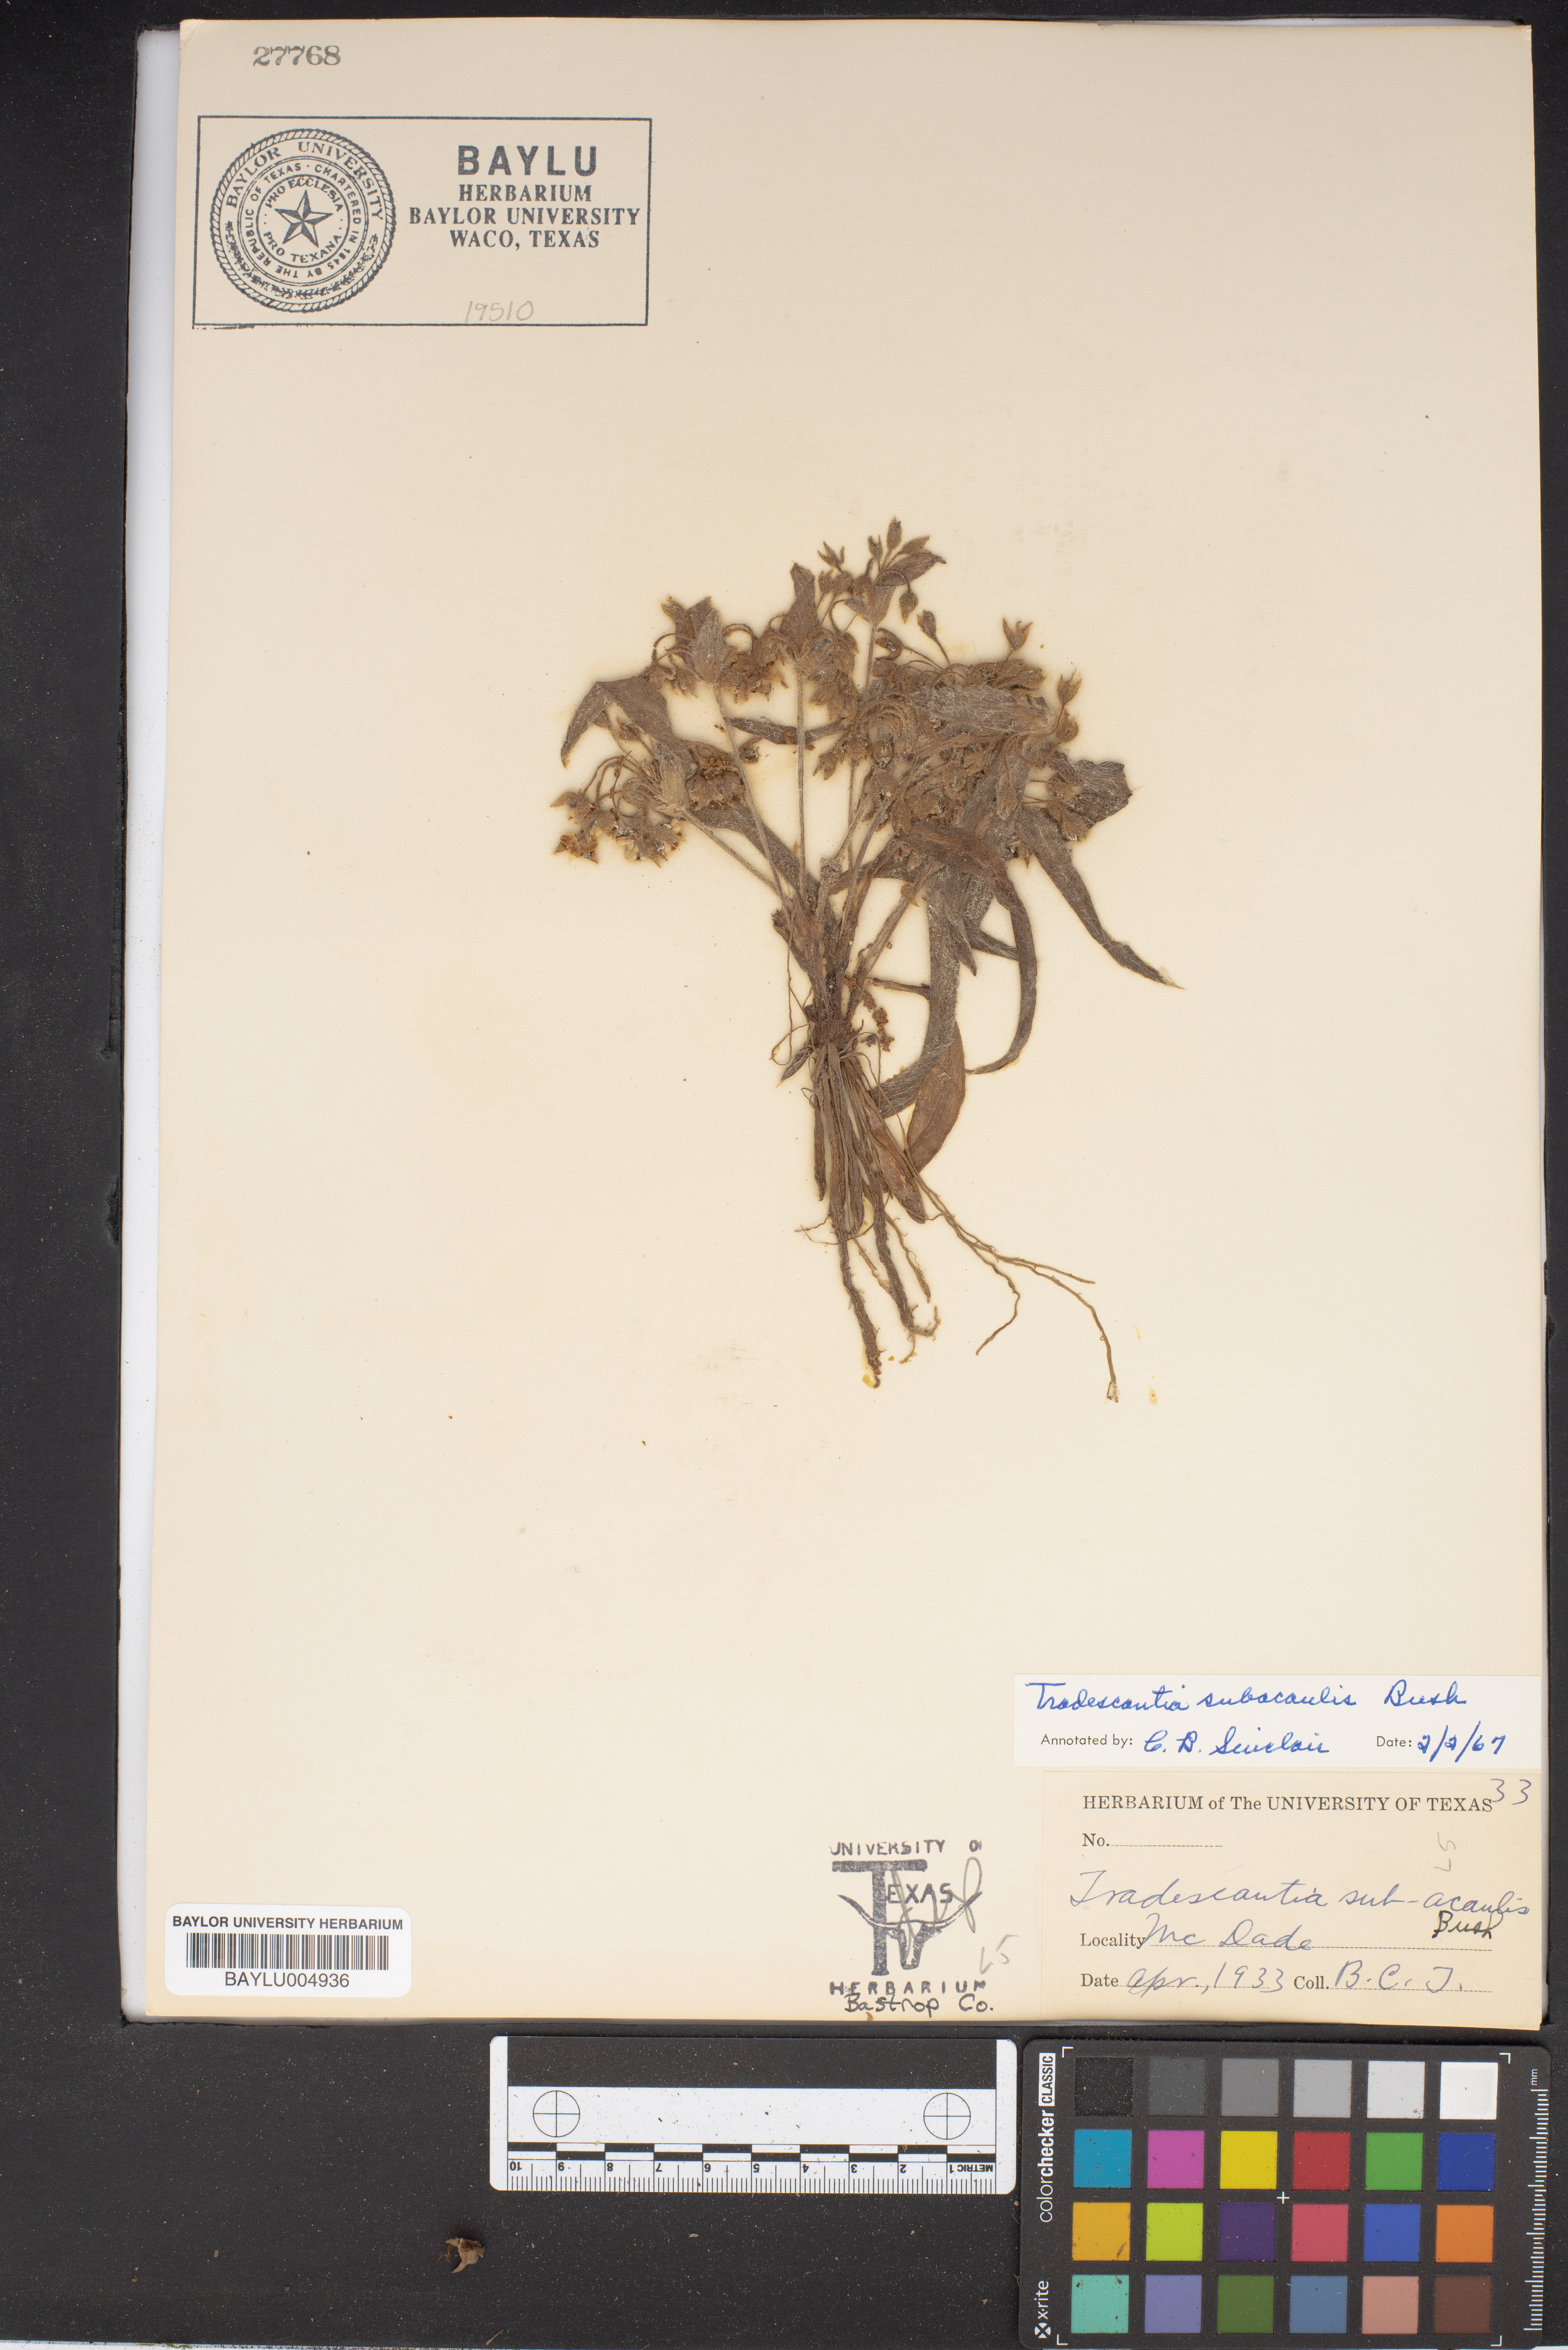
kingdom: Plantae
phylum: Tracheophyta
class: Liliopsida
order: Commelinales
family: Commelinaceae
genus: Tradescantia
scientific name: Tradescantia subacaulis
